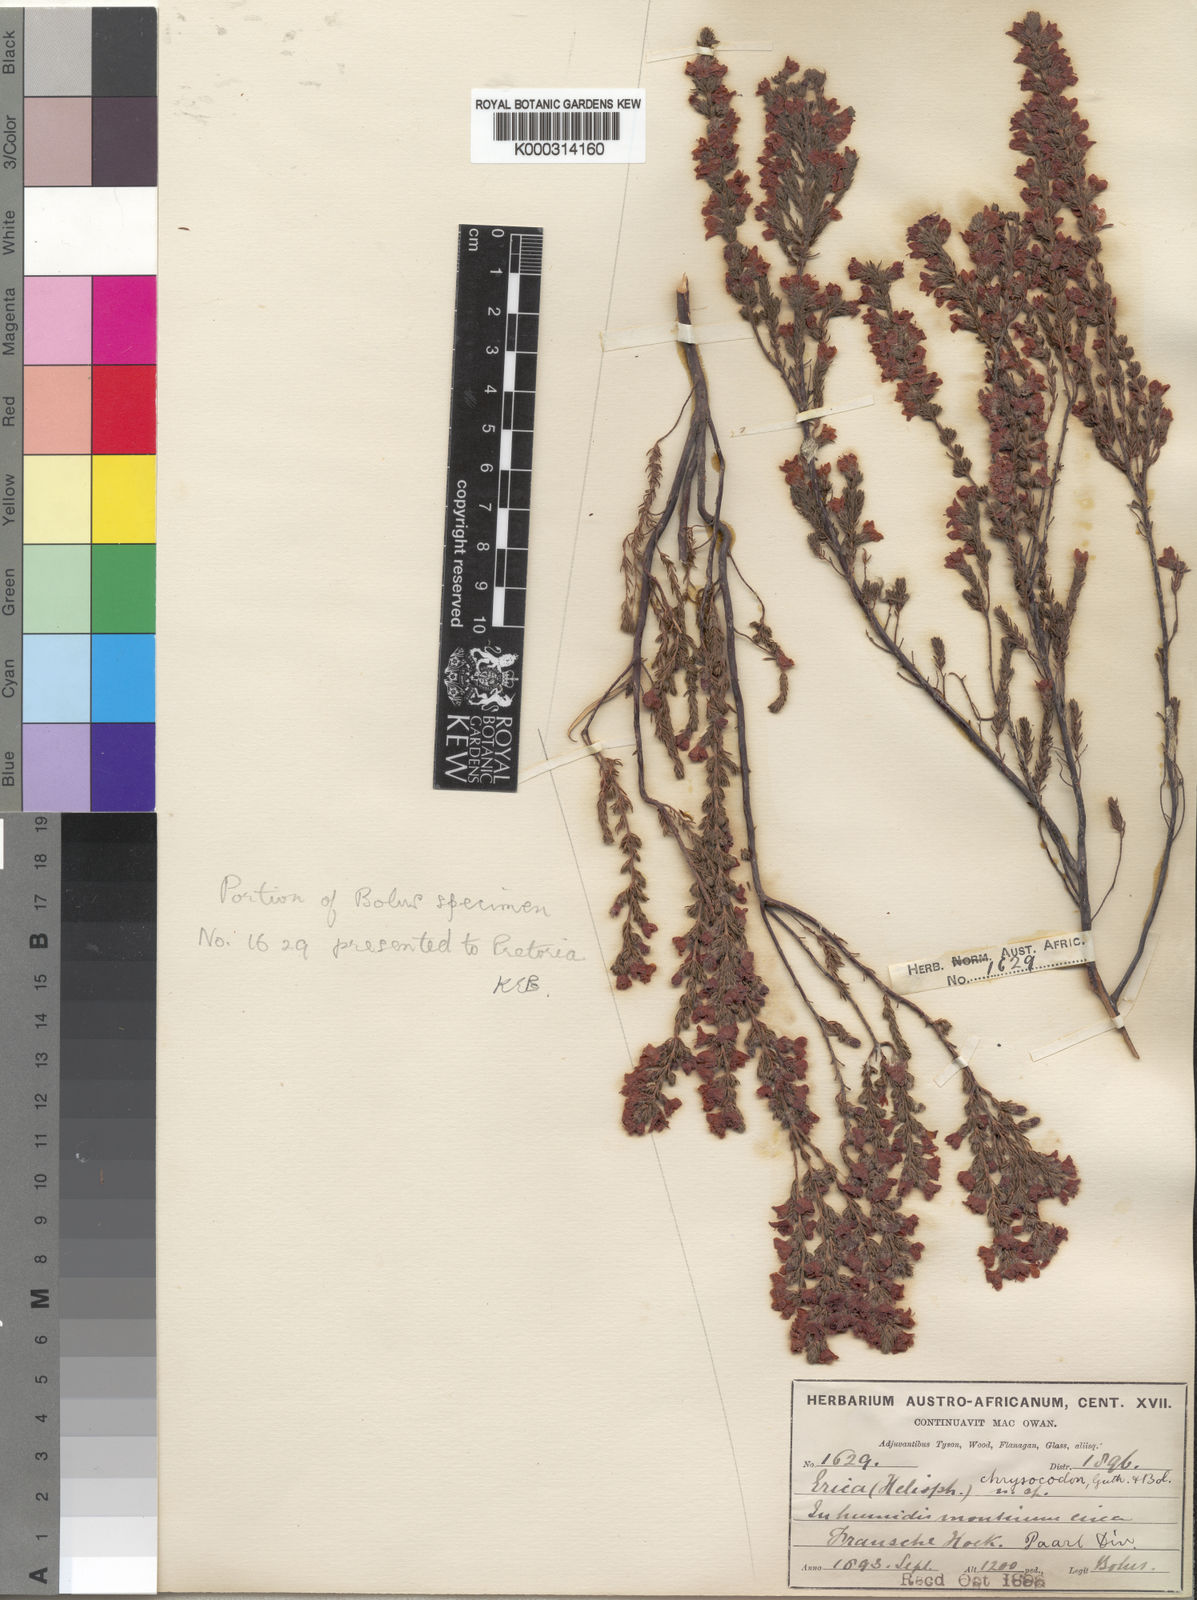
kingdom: Plantae
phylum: Tracheophyta
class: Magnoliopsida
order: Ericales
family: Ericaceae
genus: Erica
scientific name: Erica chrysocodon
